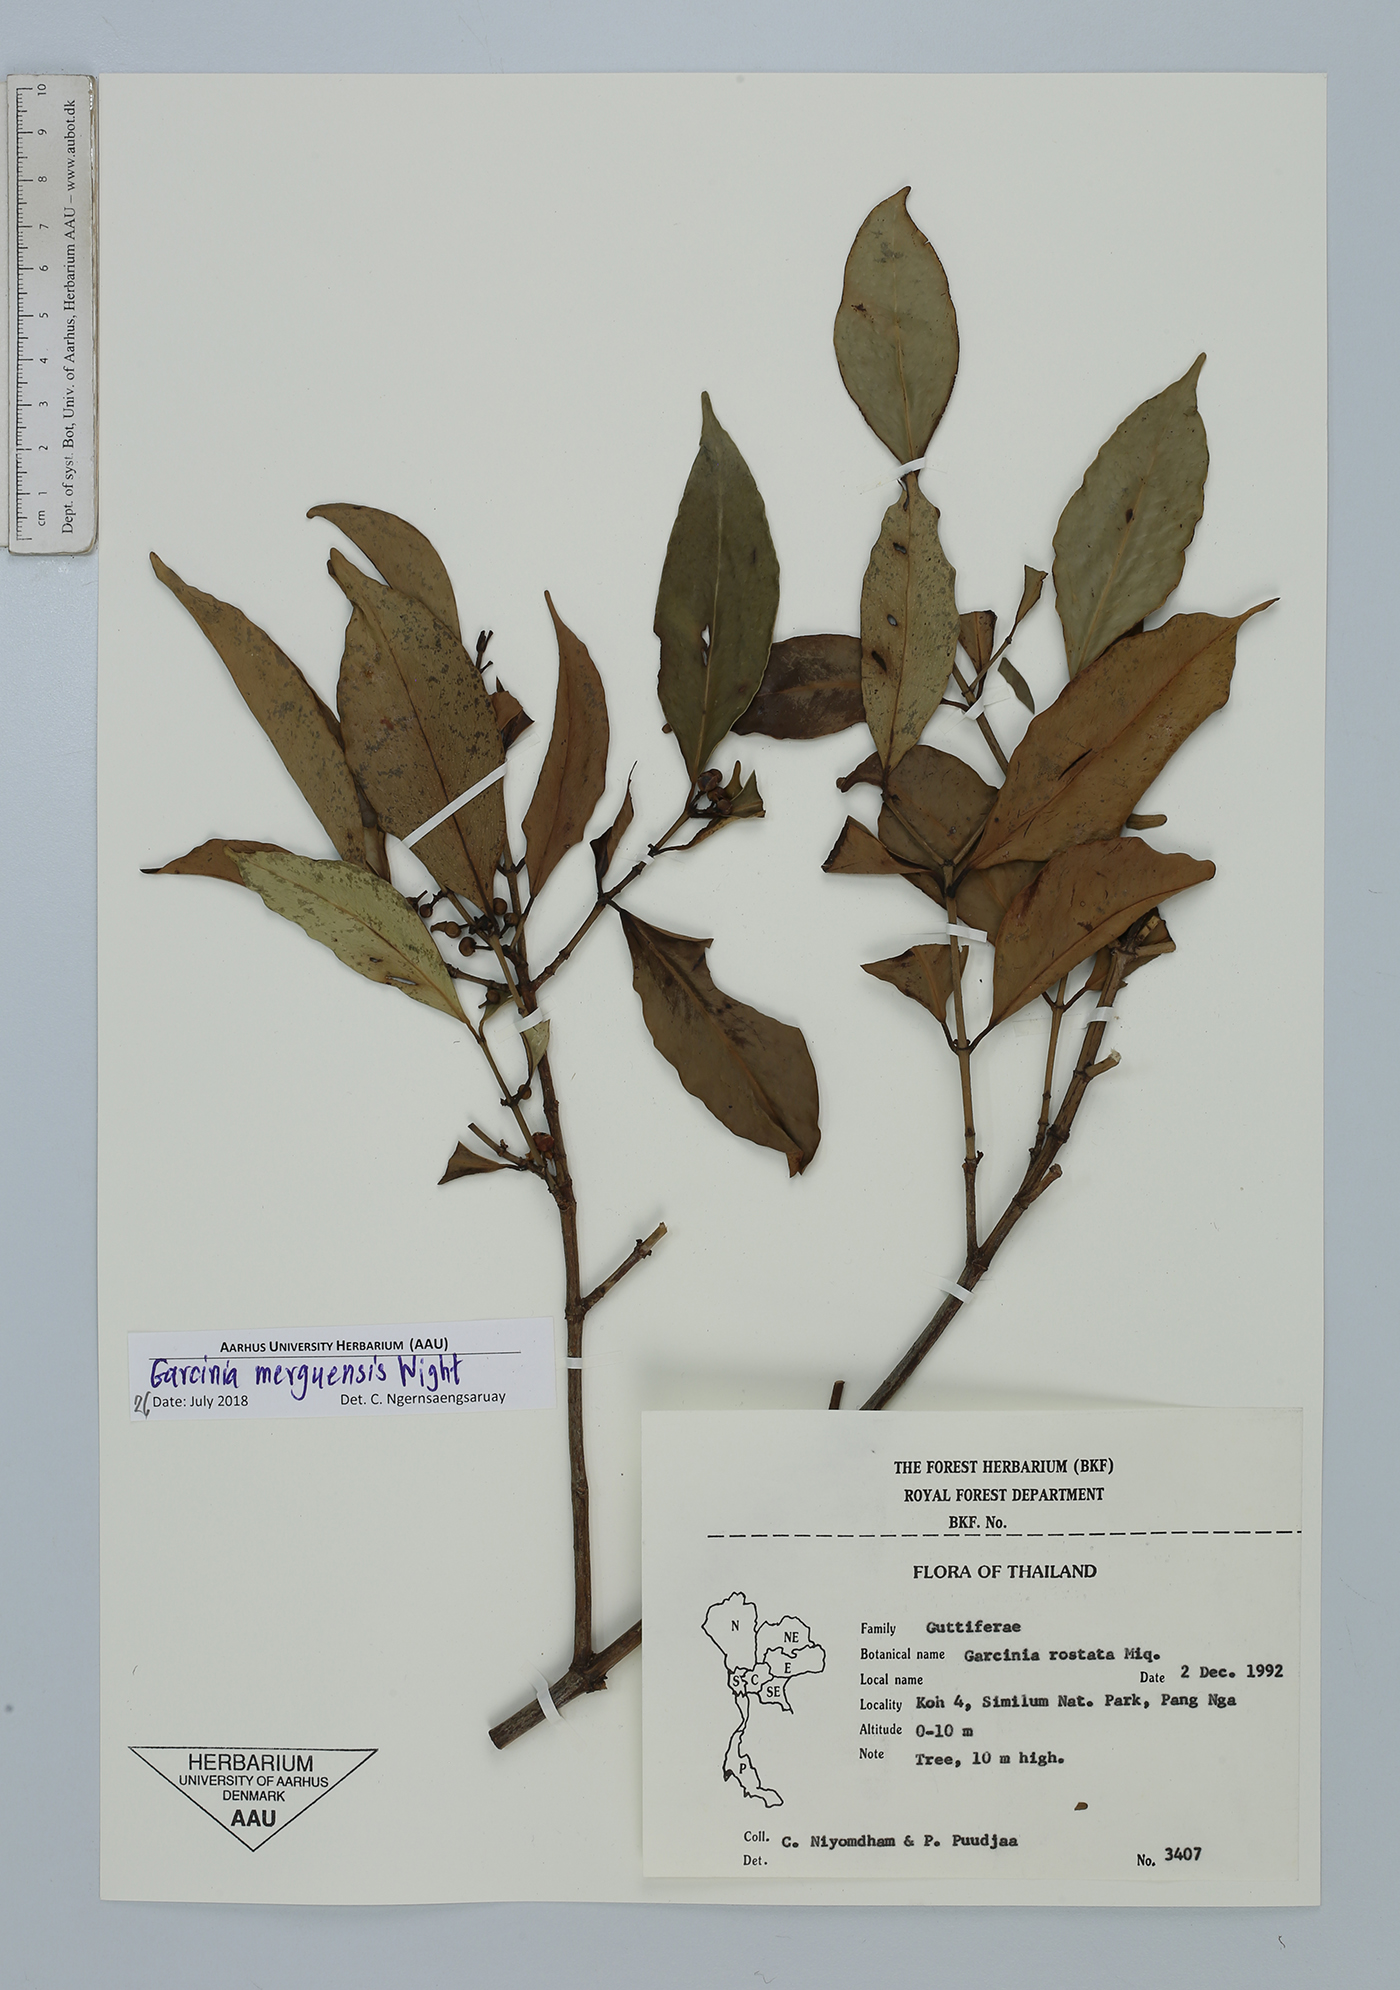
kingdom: Plantae
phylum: Tracheophyta
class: Magnoliopsida
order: Malpighiales
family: Clusiaceae
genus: Garcinia
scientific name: Garcinia merguensis
